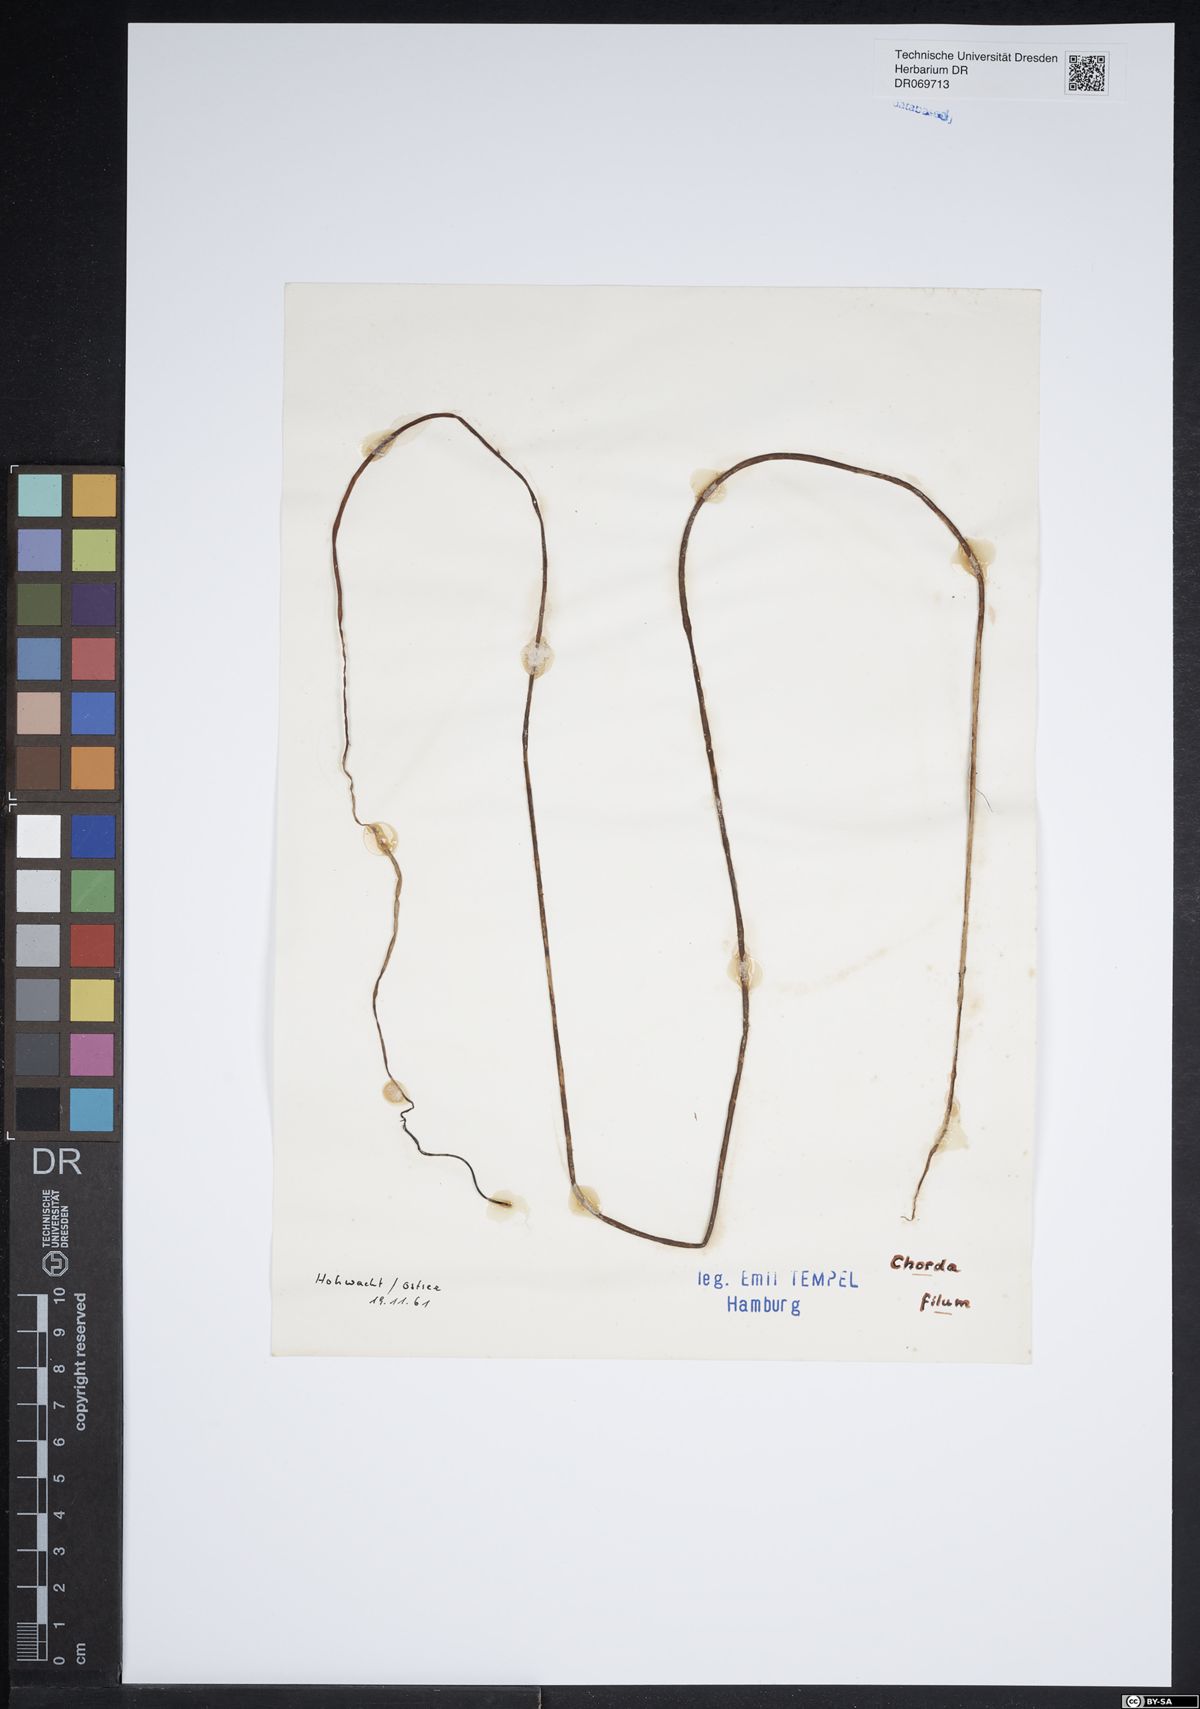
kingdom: Chromista
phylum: Ochrophyta
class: Phaeophyceae
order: Laminariales
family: Chordaceae
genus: Chorda
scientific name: Chorda filum
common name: Mermaid's tresses
